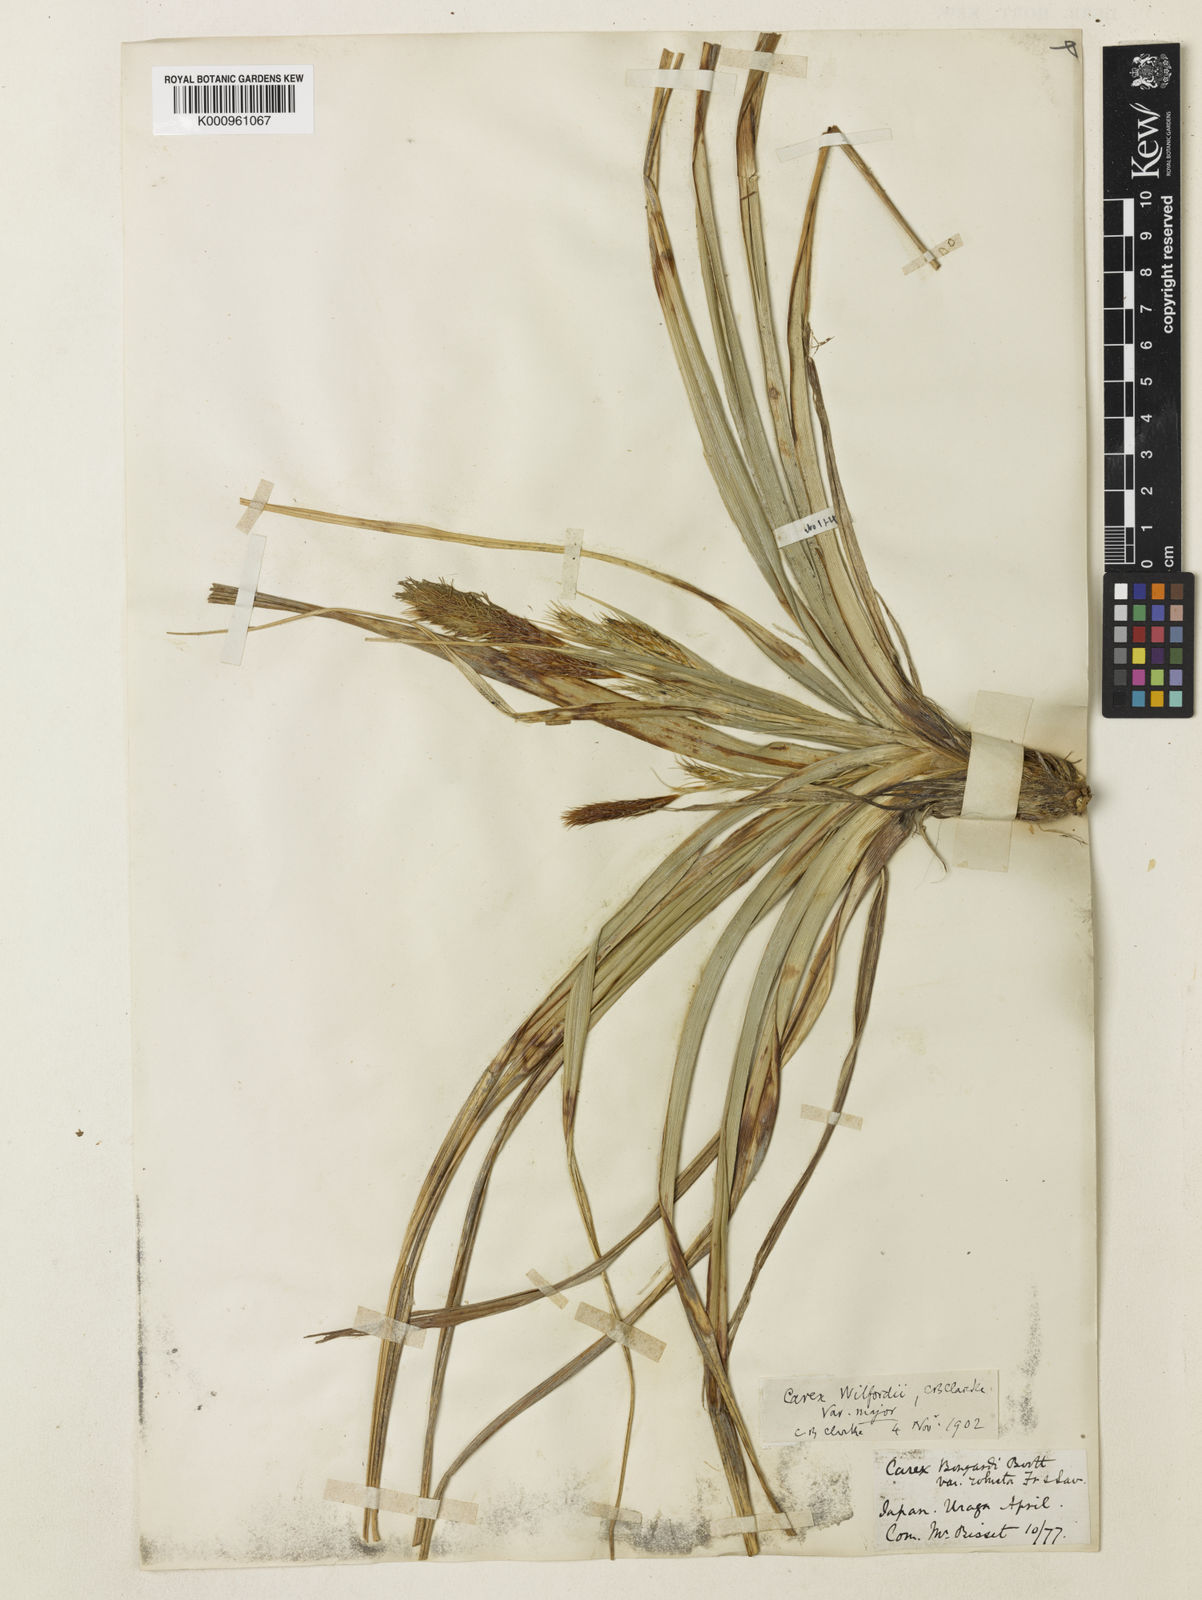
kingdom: Plantae
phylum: Tracheophyta
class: Liliopsida
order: Poales
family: Cyperaceae
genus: Carex
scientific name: Carex wahuensis
